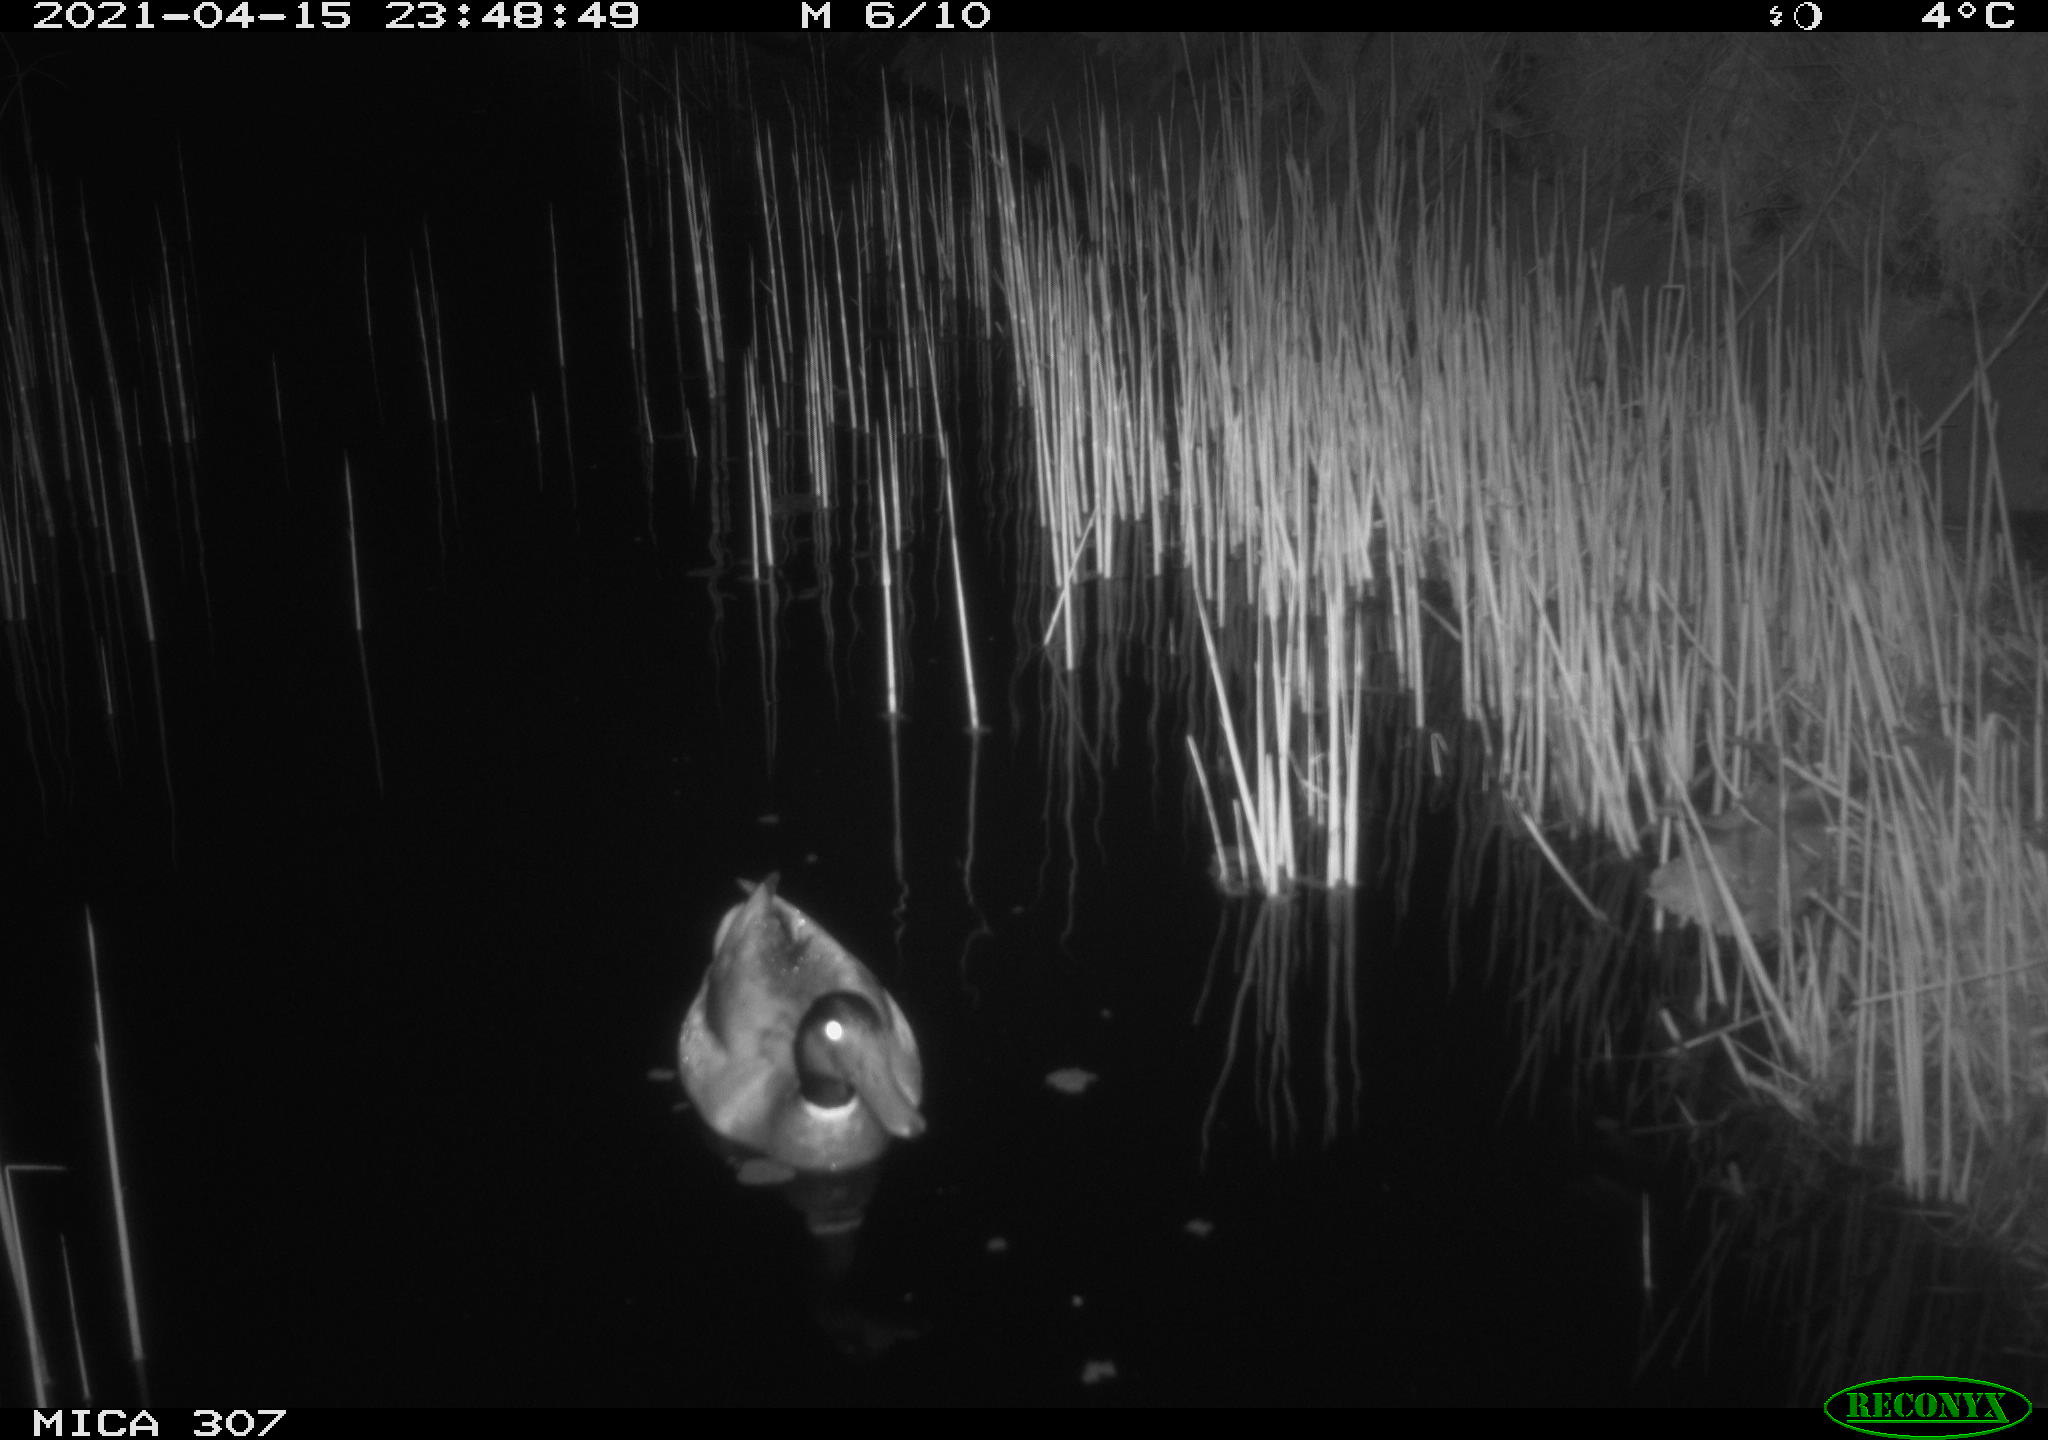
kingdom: Animalia
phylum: Chordata
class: Aves
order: Gruiformes
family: Rallidae
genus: Gallinula
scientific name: Gallinula chloropus
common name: Common moorhen
